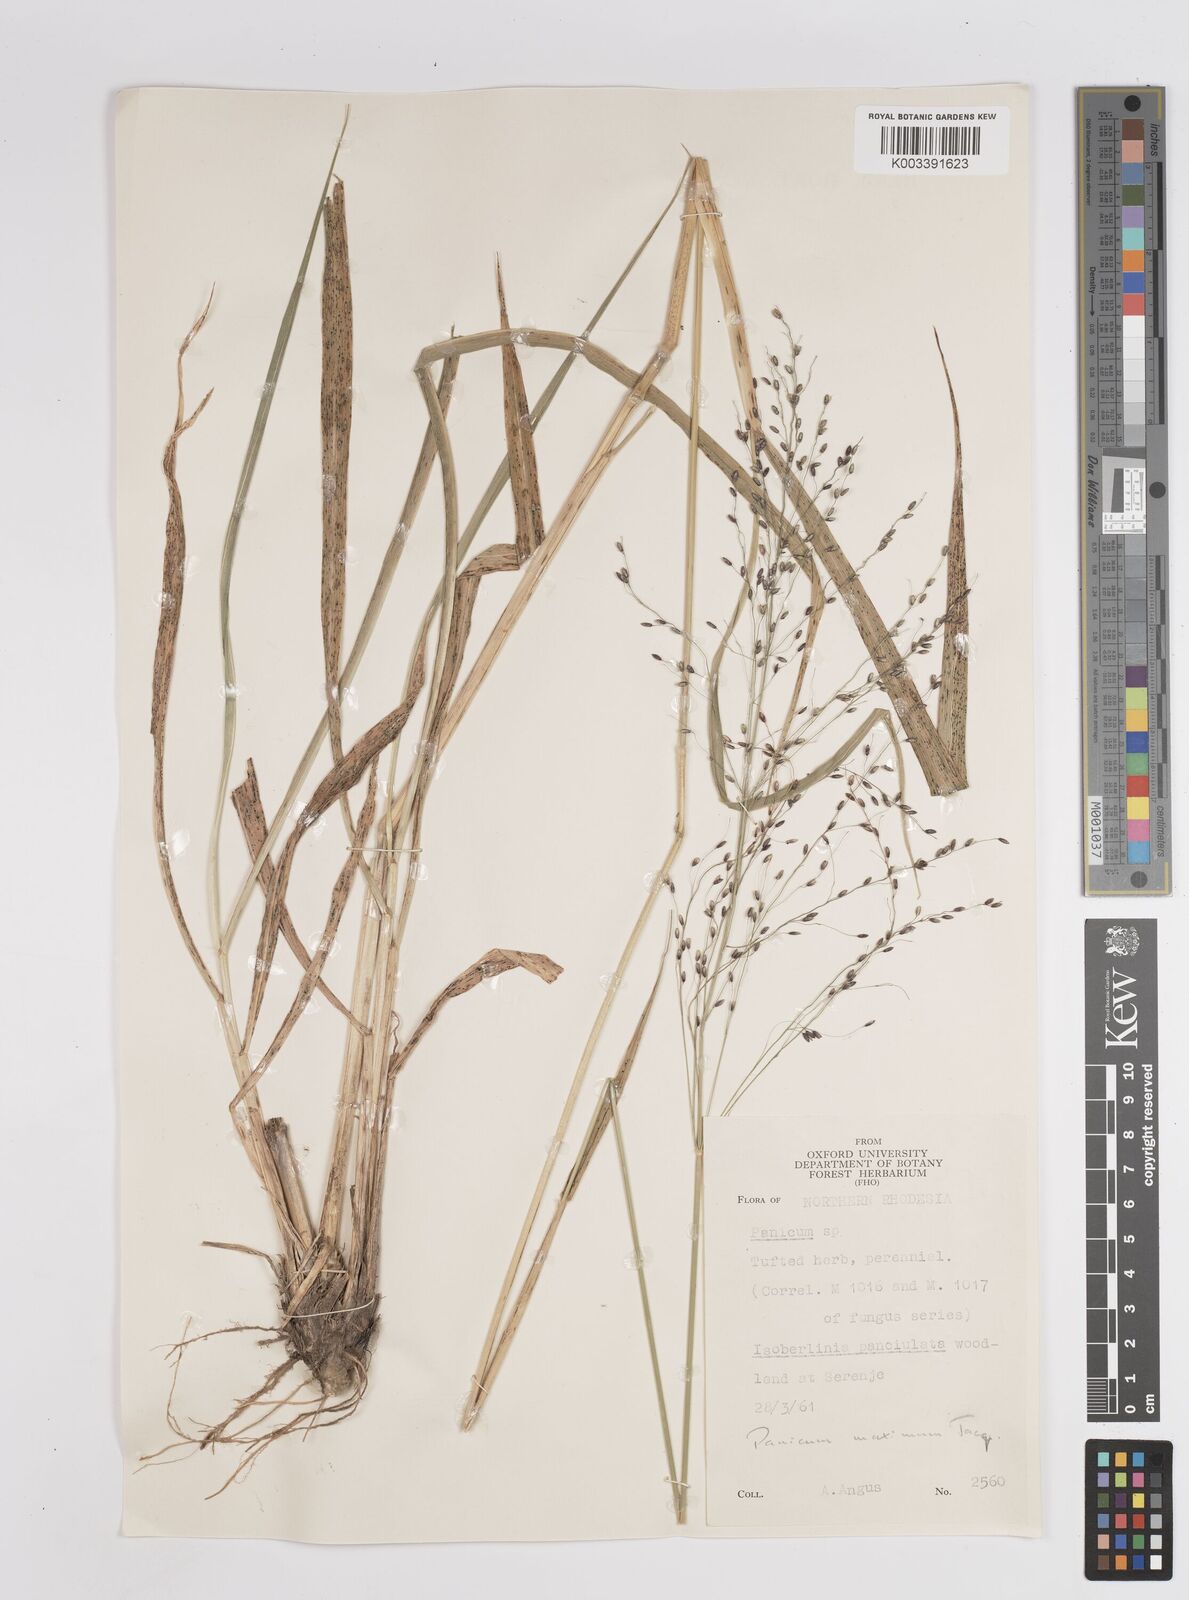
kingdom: Plantae
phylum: Tracheophyta
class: Liliopsida
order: Poales
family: Poaceae
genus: Megathyrsus
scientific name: Megathyrsus maximus
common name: Guineagrass
